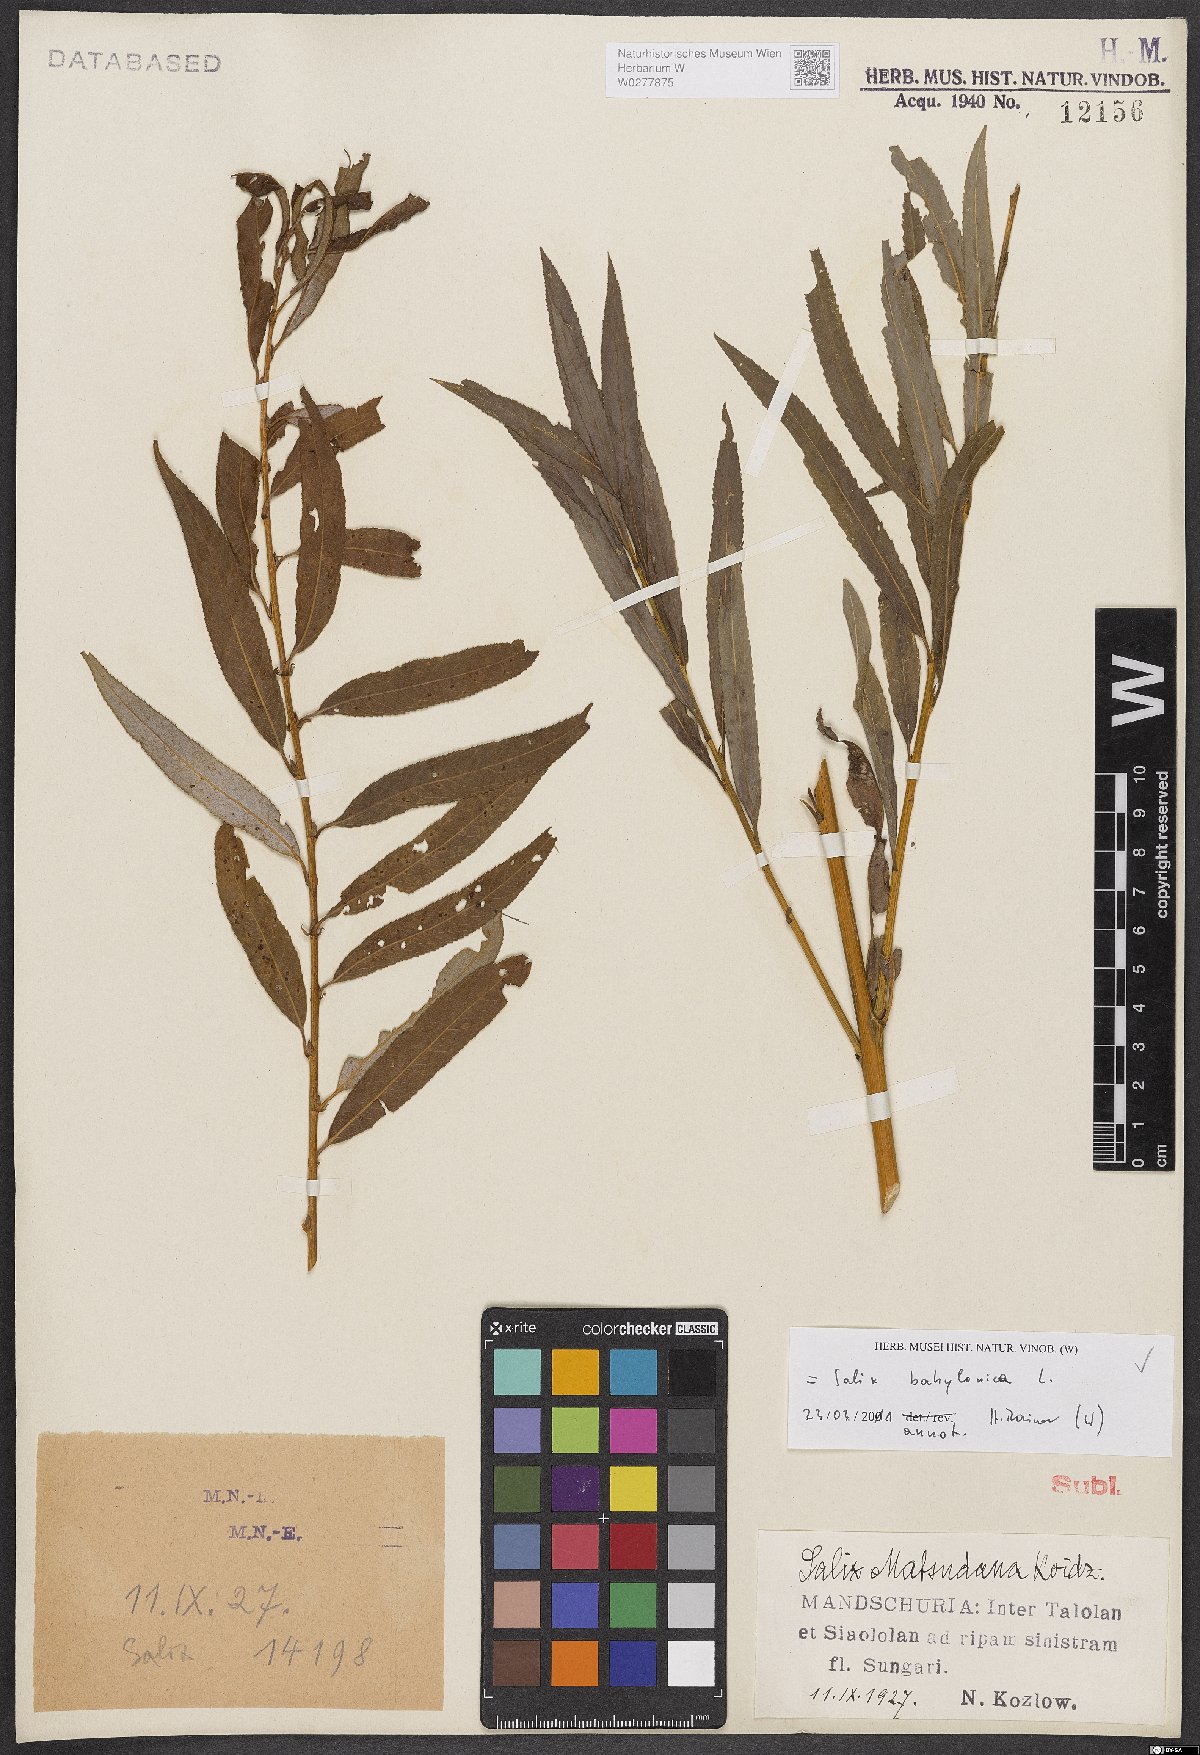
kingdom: Plantae
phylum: Tracheophyta
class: Magnoliopsida
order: Malpighiales
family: Salicaceae
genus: Salix
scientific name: Salix babylonica
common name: Weeping willow
